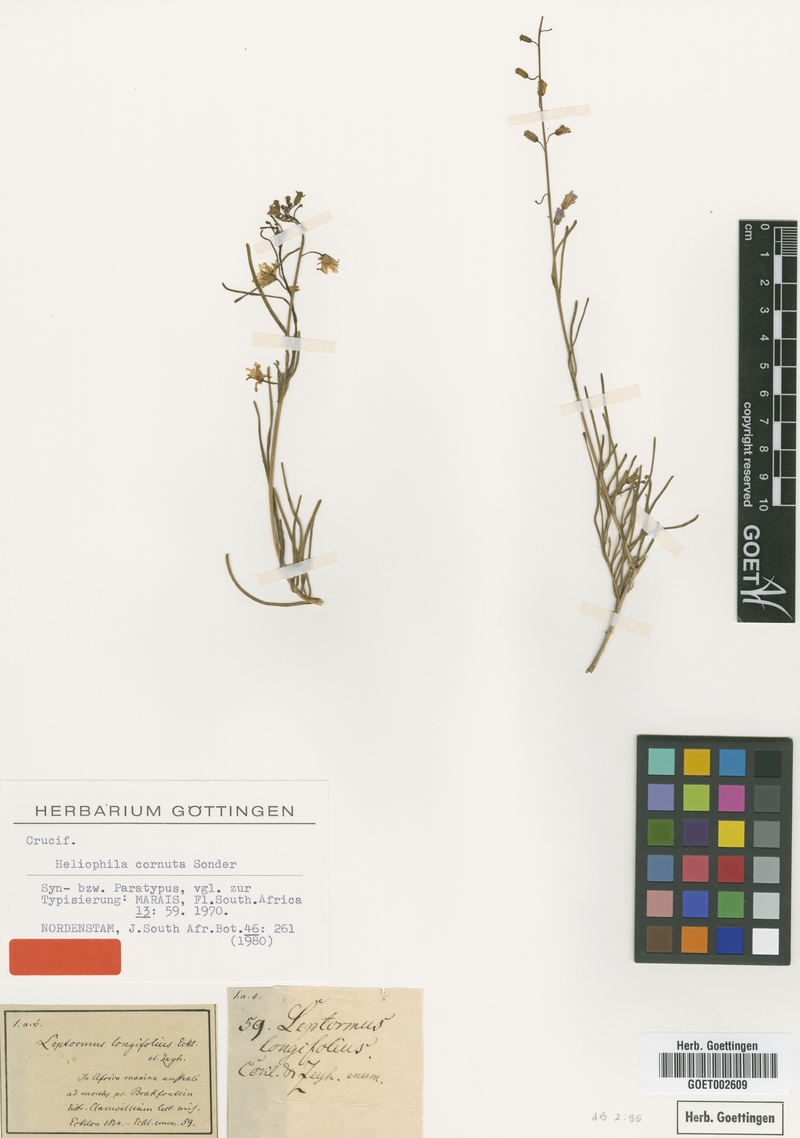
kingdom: Plantae
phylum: Tracheophyta
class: Magnoliopsida
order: Brassicales
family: Brassicaceae
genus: Heliophila
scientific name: Heliophila cornuta
